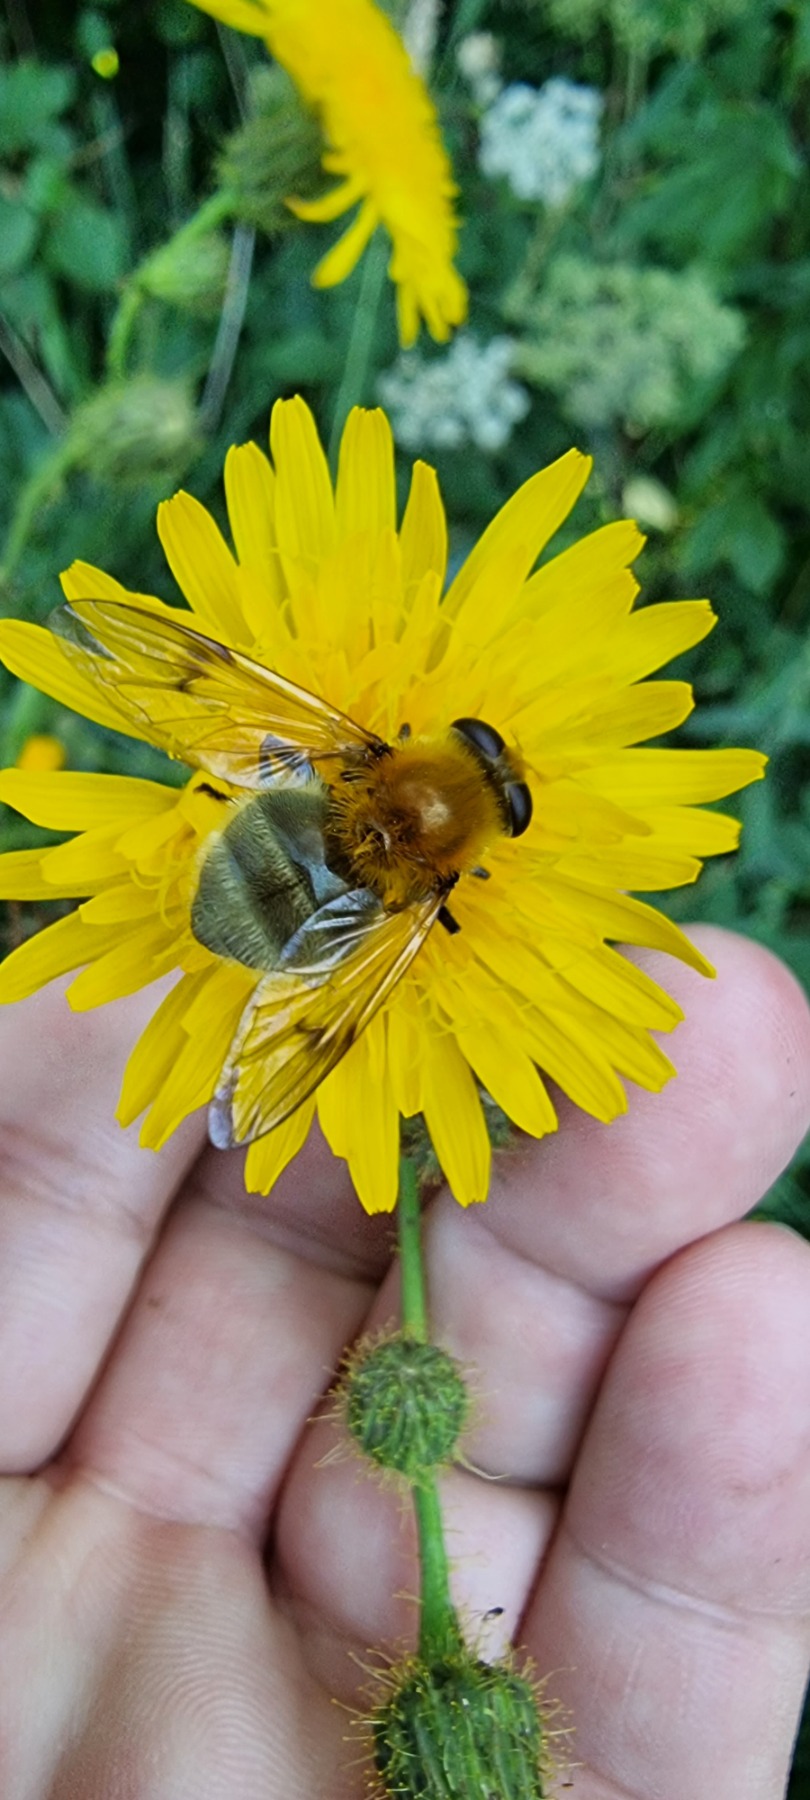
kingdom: Animalia
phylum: Arthropoda
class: Insecta
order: Diptera
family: Syrphidae
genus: Sericomyia
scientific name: Sericomyia superbiens
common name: Brun bjørnesvirreflue
